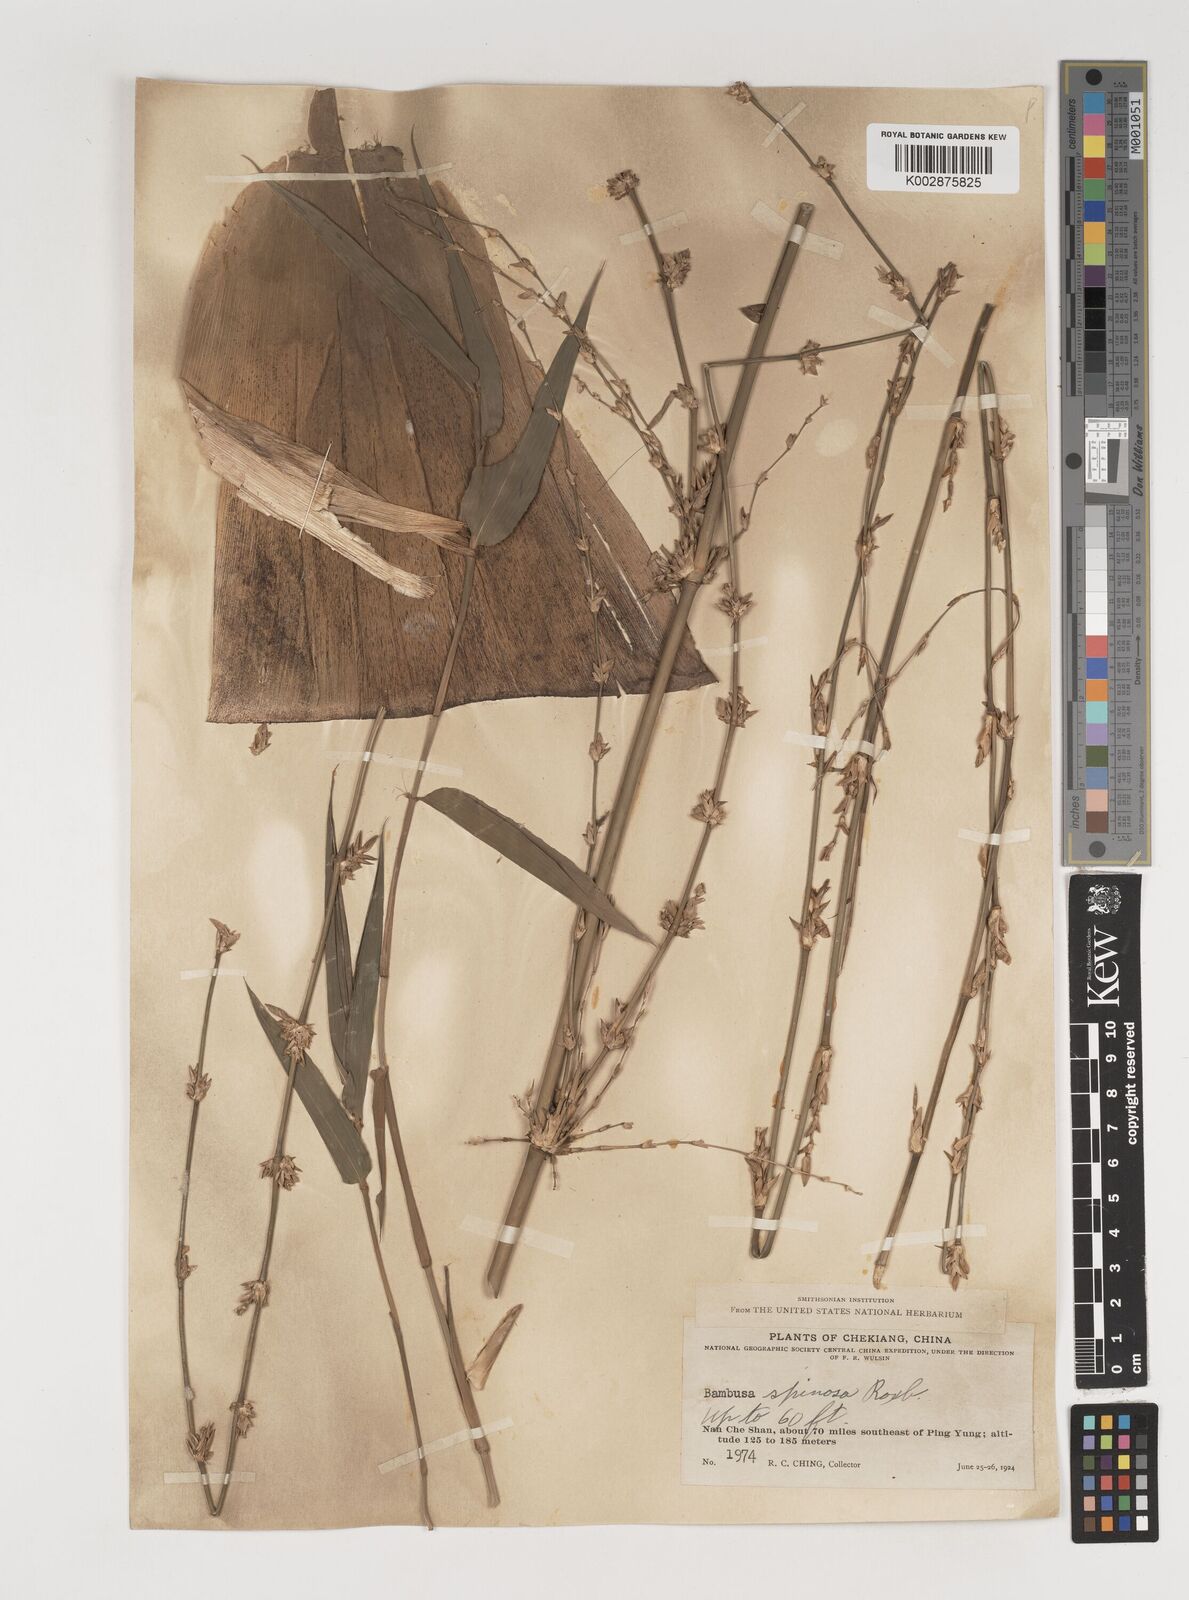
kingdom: Plantae
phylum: Tracheophyta
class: Liliopsida
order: Poales
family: Poaceae
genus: Bambusa
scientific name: Bambusa bambos
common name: Indian thorny bamboo
